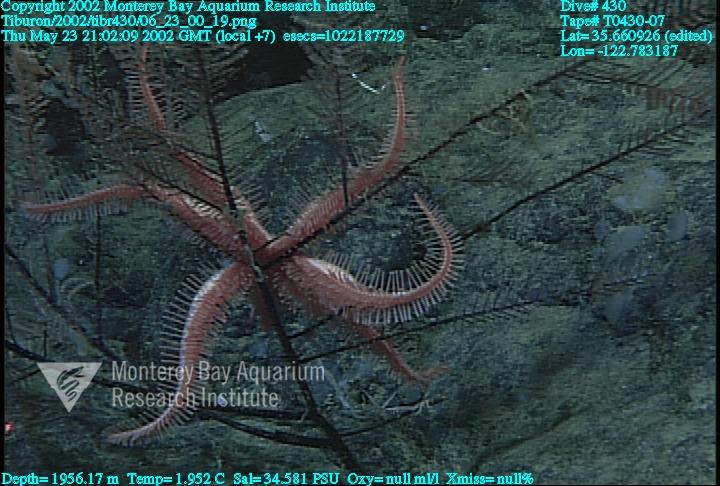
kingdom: Animalia
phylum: Porifera
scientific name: Porifera
